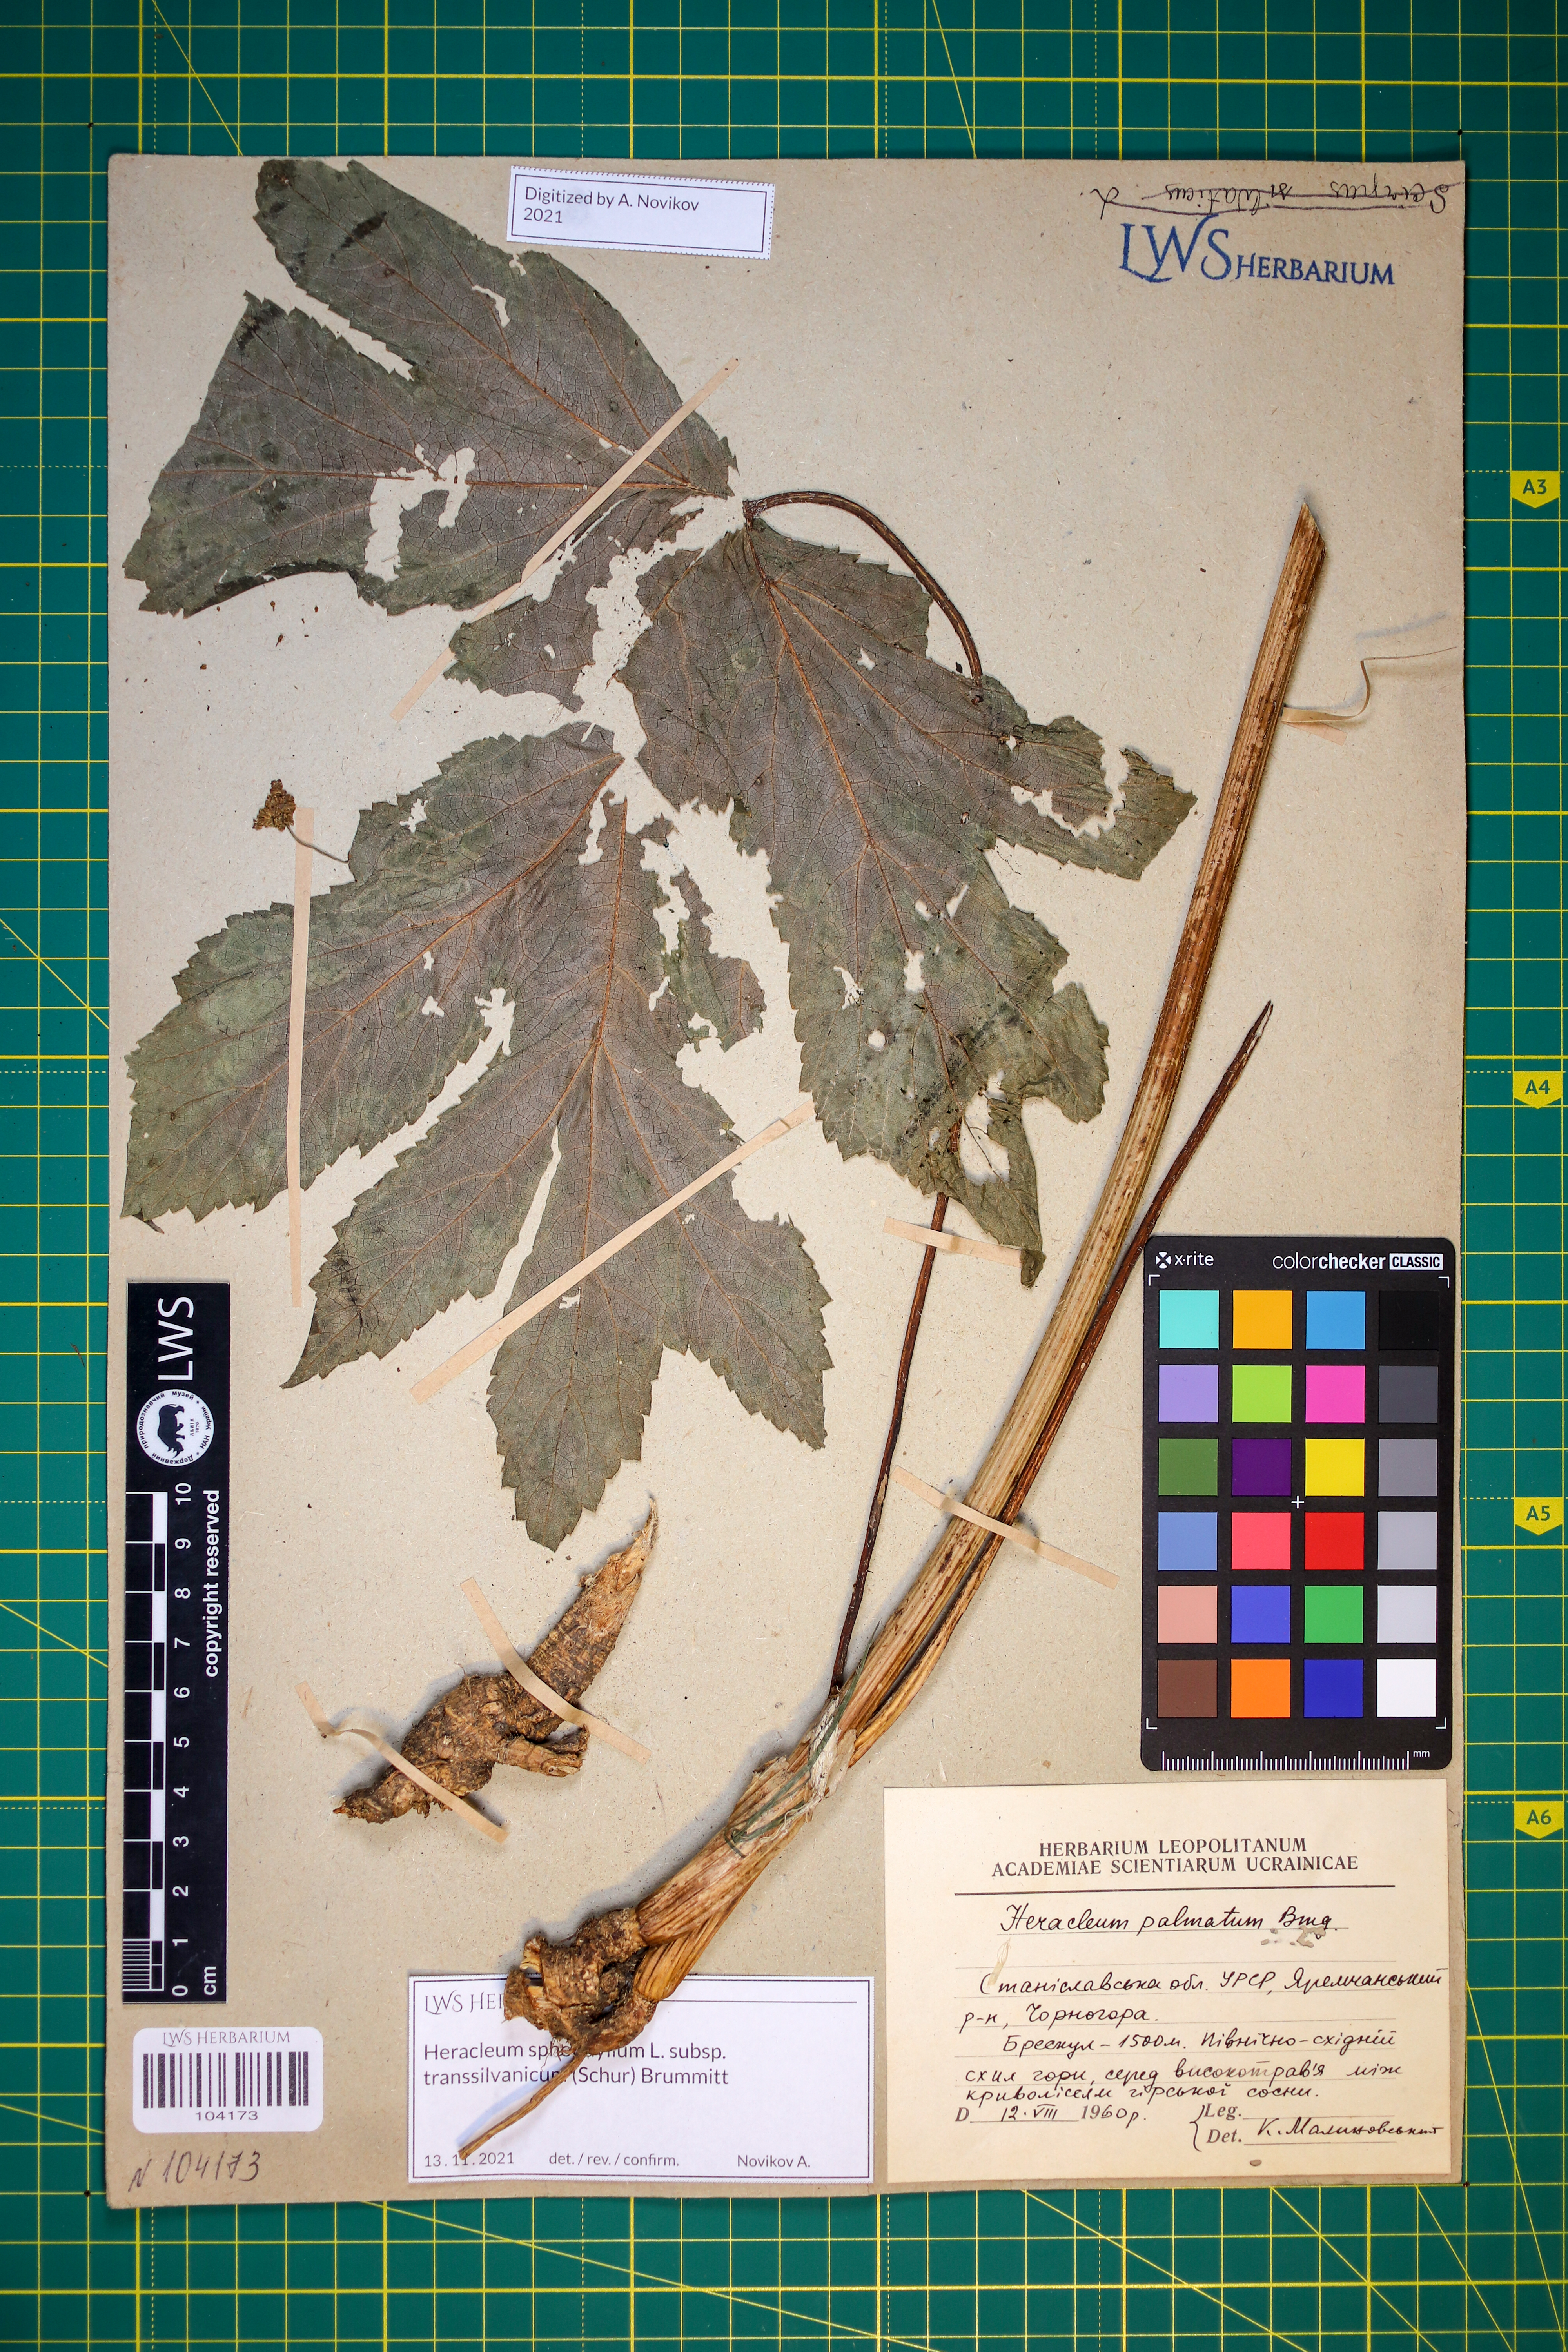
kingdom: Plantae
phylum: Tracheophyta
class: Magnoliopsida
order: Apiales
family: Apiaceae
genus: Heracleum
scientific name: Heracleum sphondylium
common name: Hogweed
